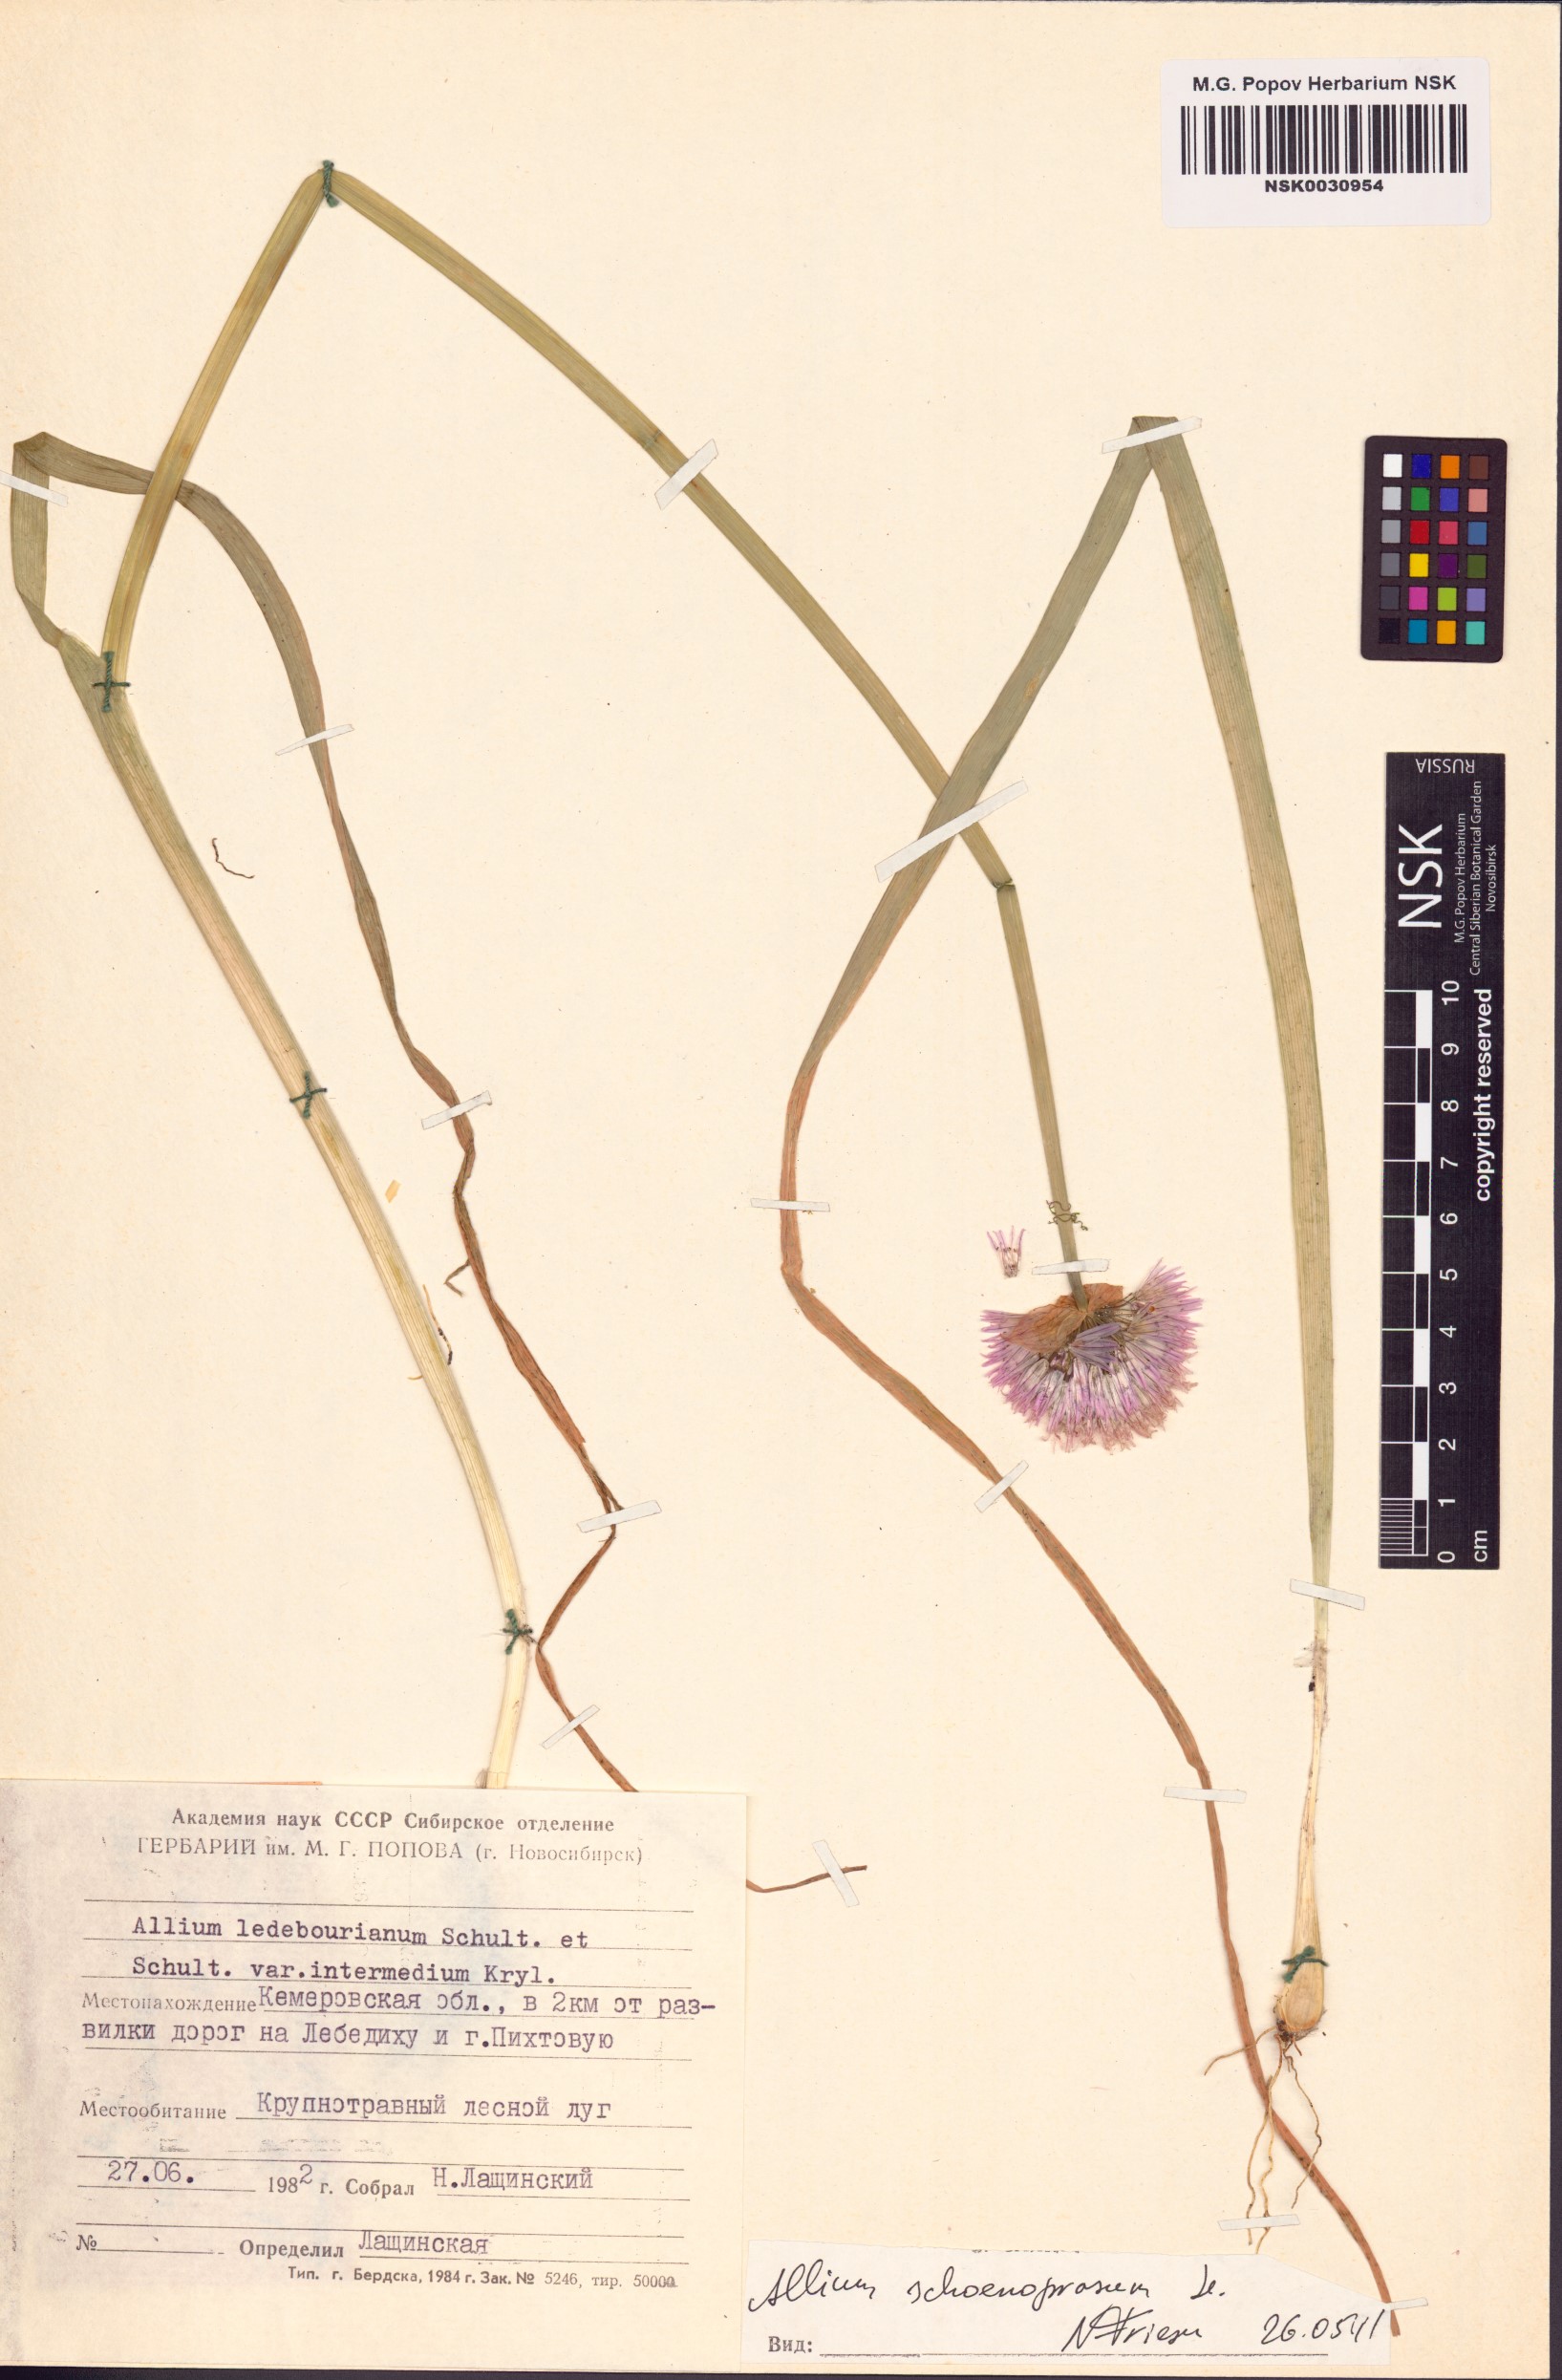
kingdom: Plantae
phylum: Tracheophyta
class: Liliopsida
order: Asparagales
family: Amaryllidaceae
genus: Allium
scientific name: Allium schoenoprasum
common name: Chives
